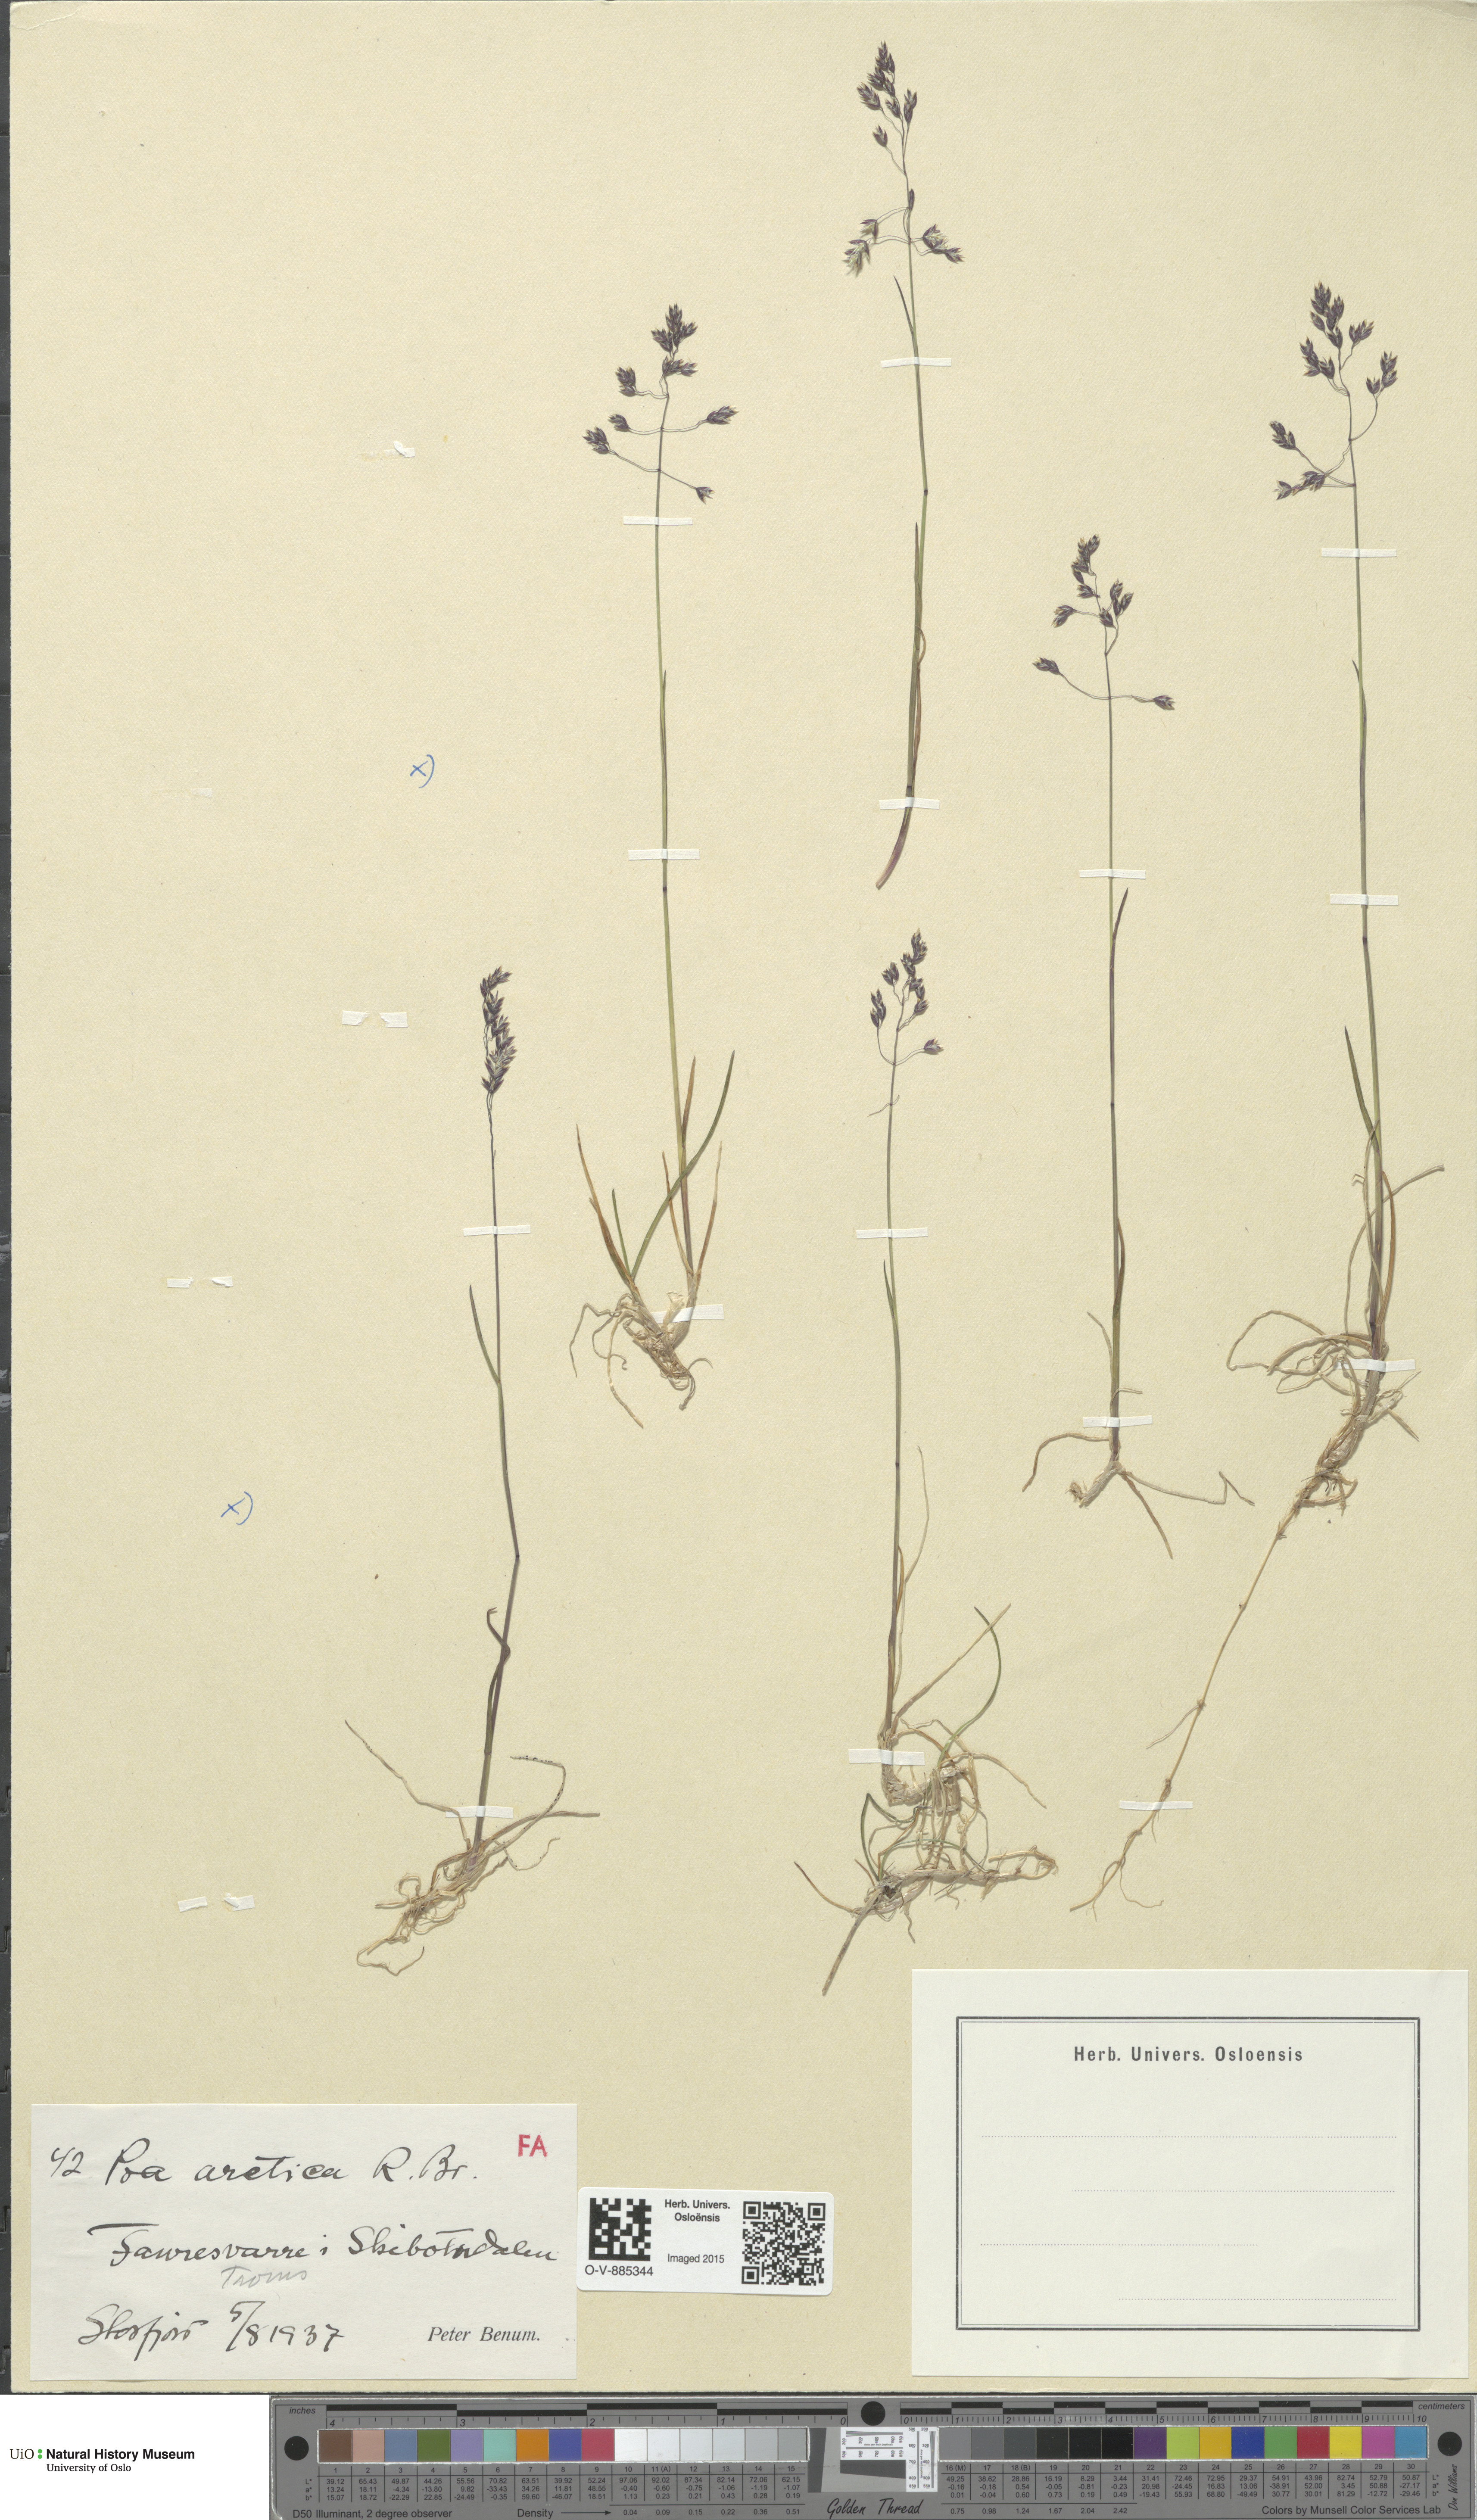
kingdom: Plantae
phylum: Tracheophyta
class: Liliopsida
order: Poales
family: Poaceae
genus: Poa
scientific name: Poa arctica
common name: Arctic bluegrass
